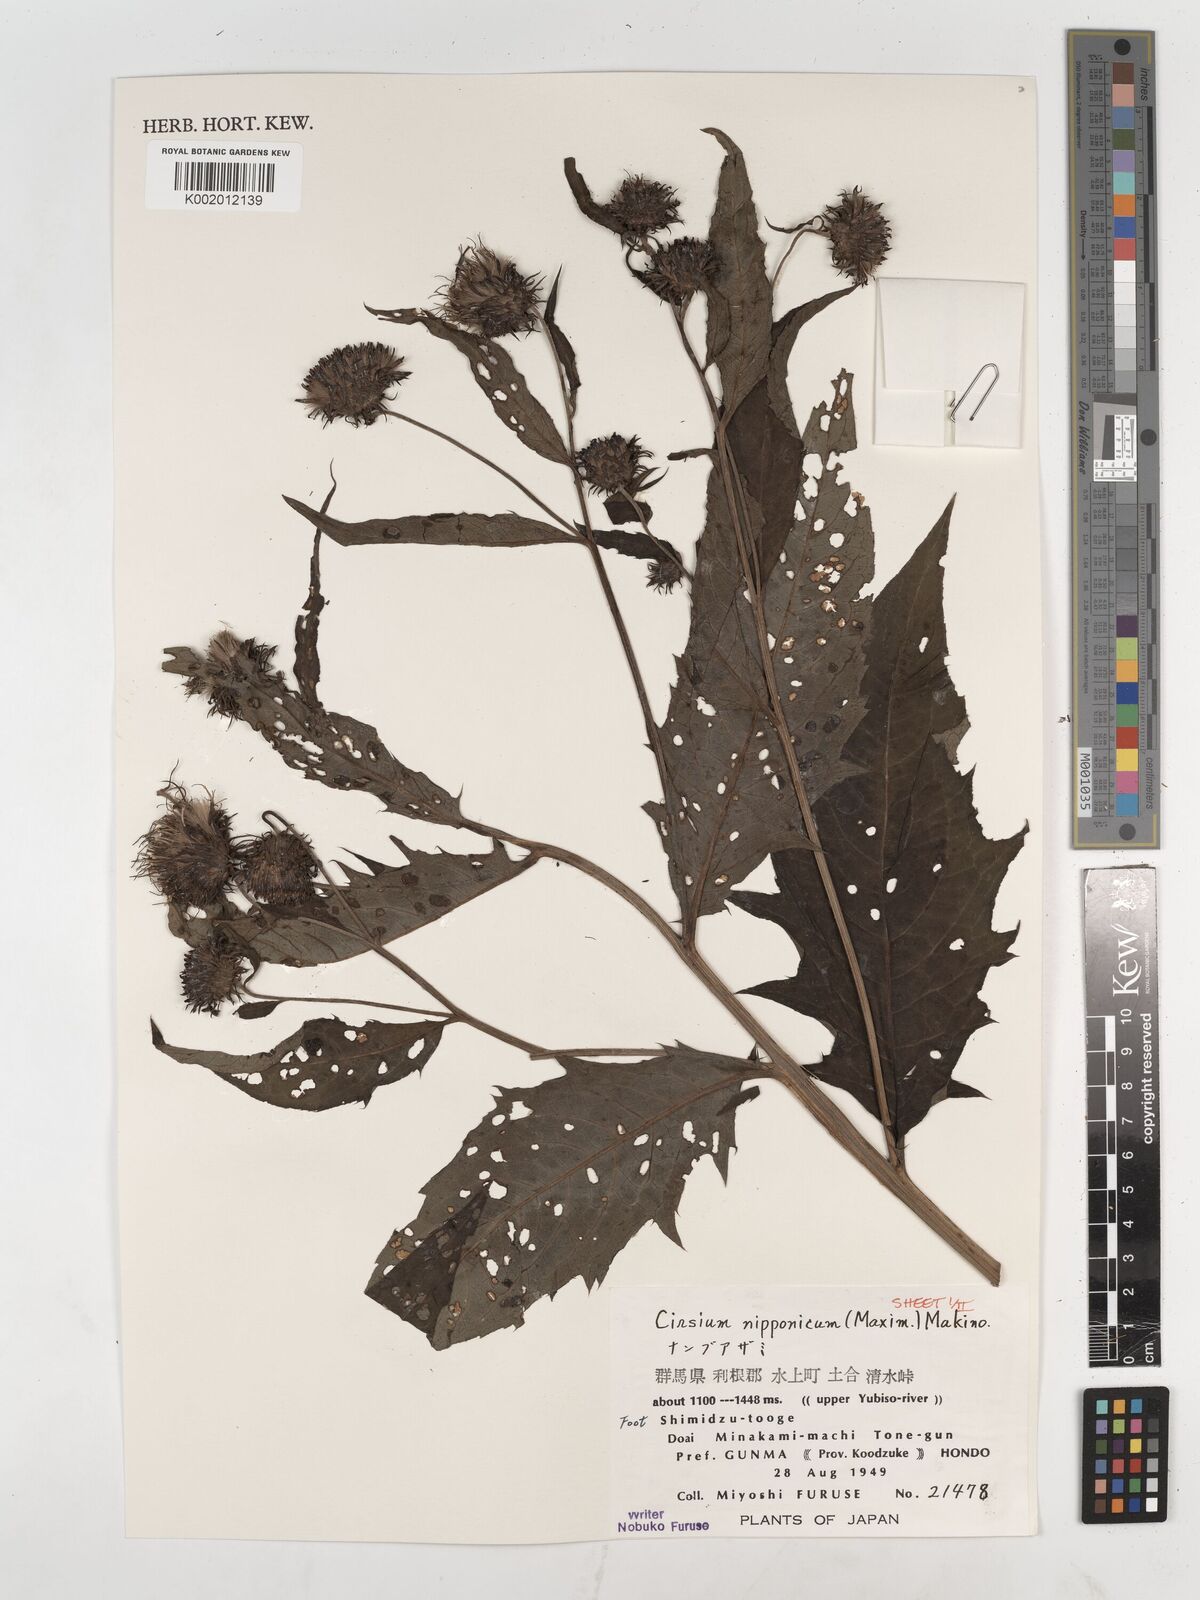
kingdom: Plantae
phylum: Tracheophyta
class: Magnoliopsida
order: Asterales
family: Asteraceae
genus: Cirsium
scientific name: Cirsium nipponicum
